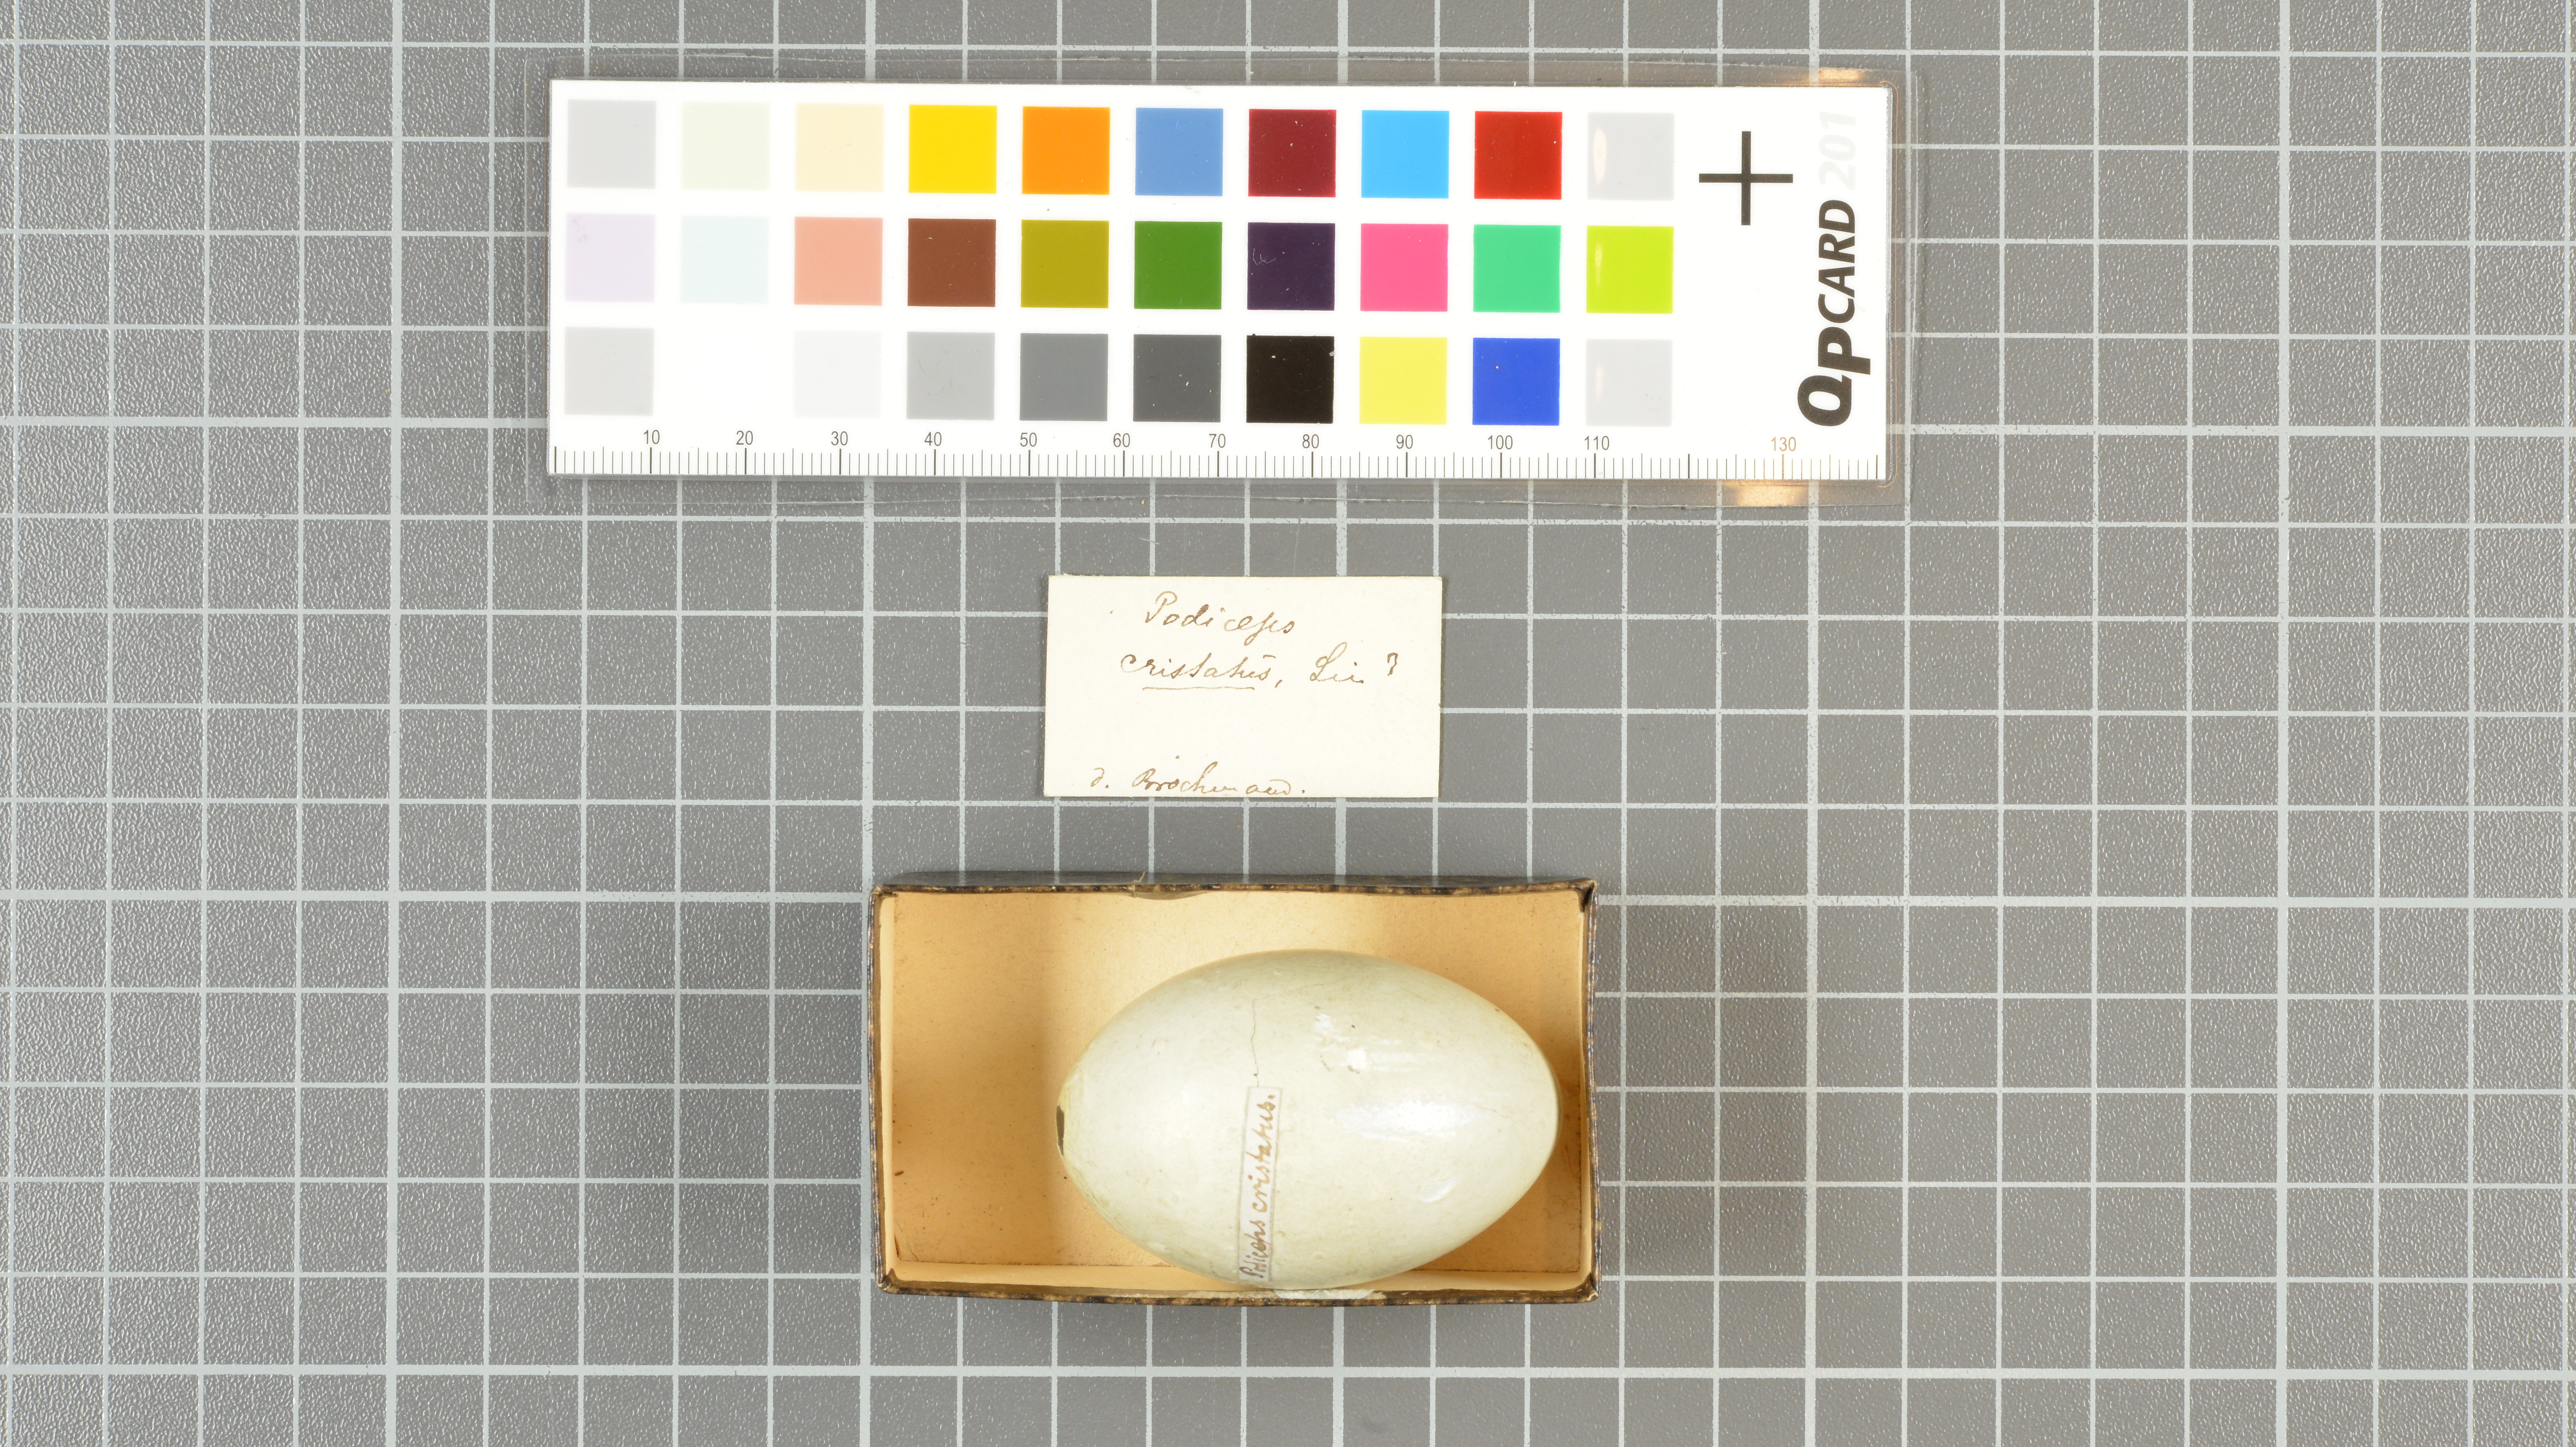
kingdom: Animalia
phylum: Chordata
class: Aves
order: Podicipediformes
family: Podicipedidae
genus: Podiceps
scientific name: Podiceps cristatus
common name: Great crested grebe
